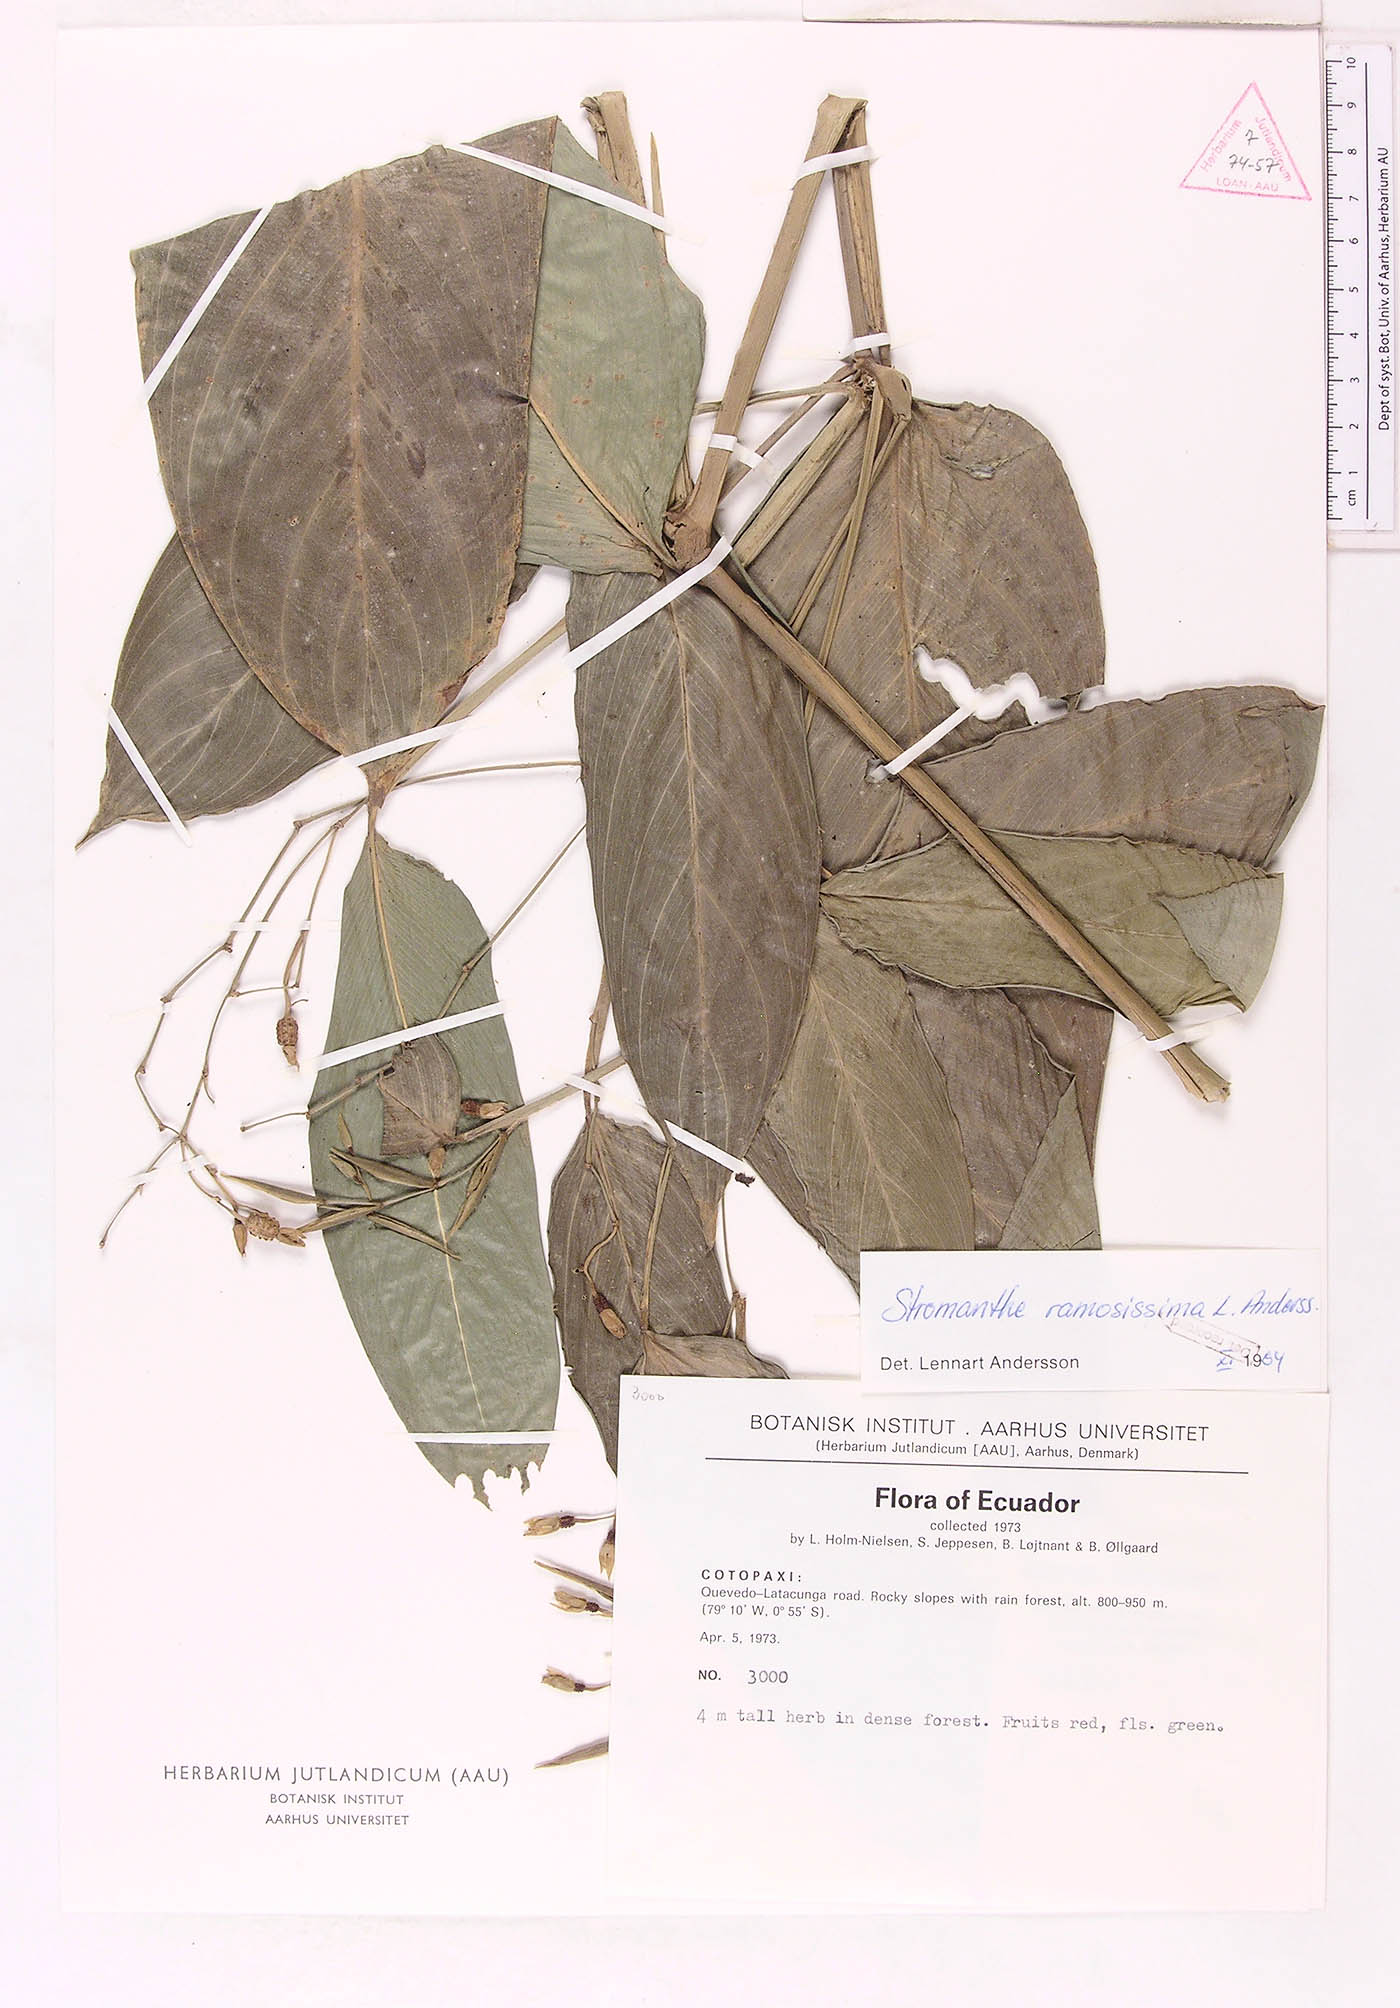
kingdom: Plantae
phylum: Tracheophyta
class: Liliopsida
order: Zingiberales
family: Marantaceae
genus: Stromanthe
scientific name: Stromanthe ramosissima
